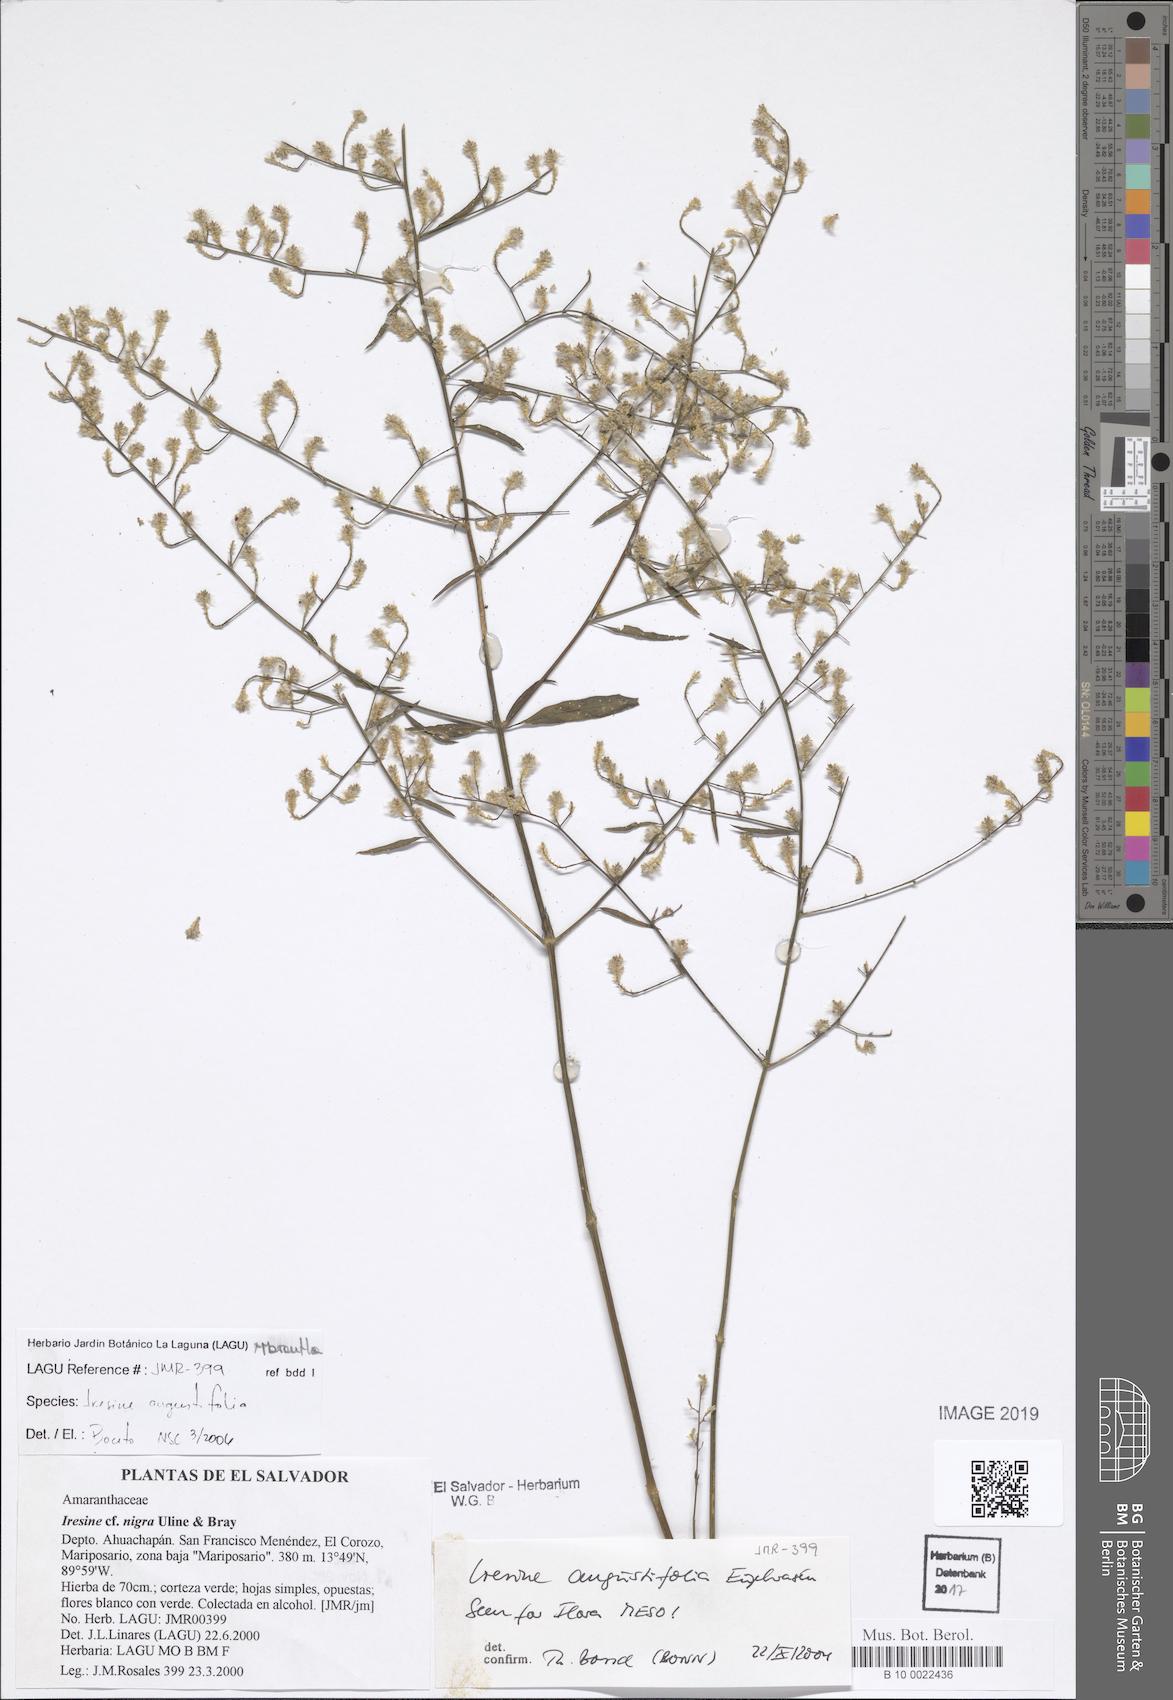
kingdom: Plantae
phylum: Tracheophyta
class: Magnoliopsida
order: Caryophyllales
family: Amaranthaceae
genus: Iresine
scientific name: Iresine angustifolia
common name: White snowplant
